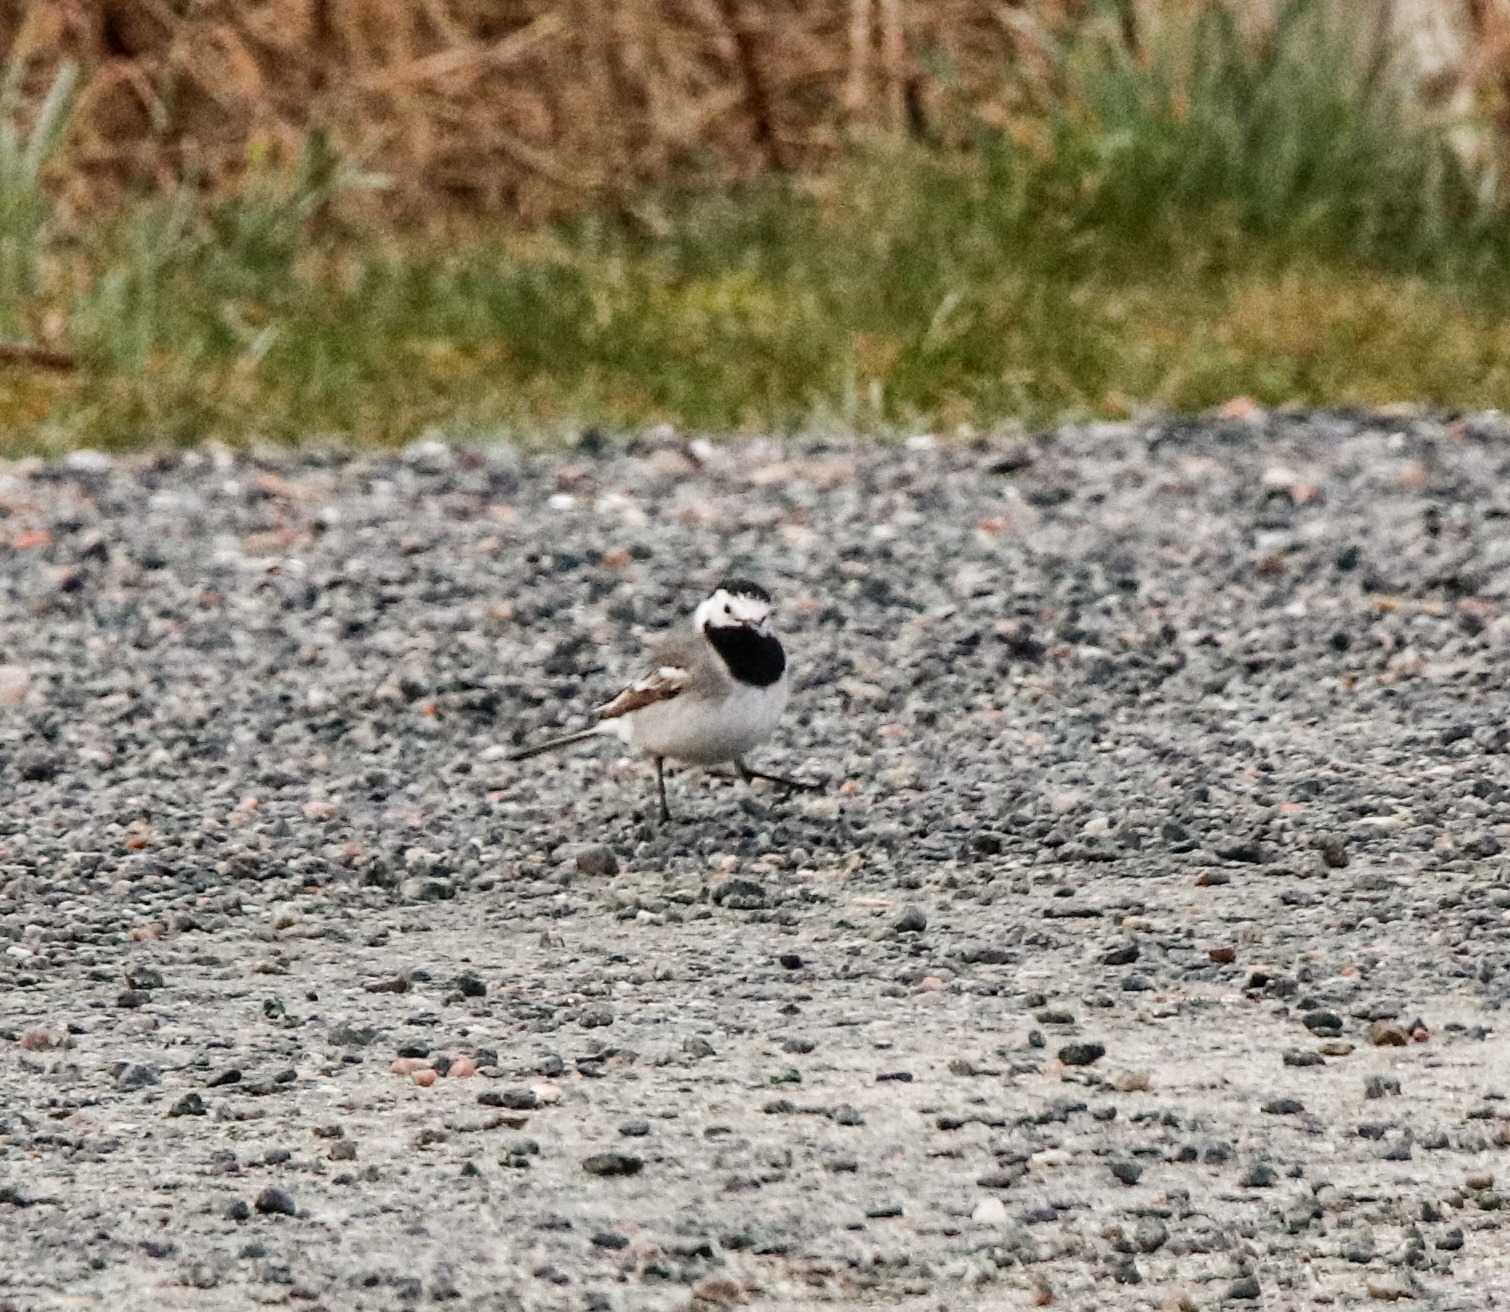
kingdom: Animalia
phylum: Chordata
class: Aves
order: Passeriformes
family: Motacillidae
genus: Motacilla
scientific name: Motacilla alba
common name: Hvid vipstjert
